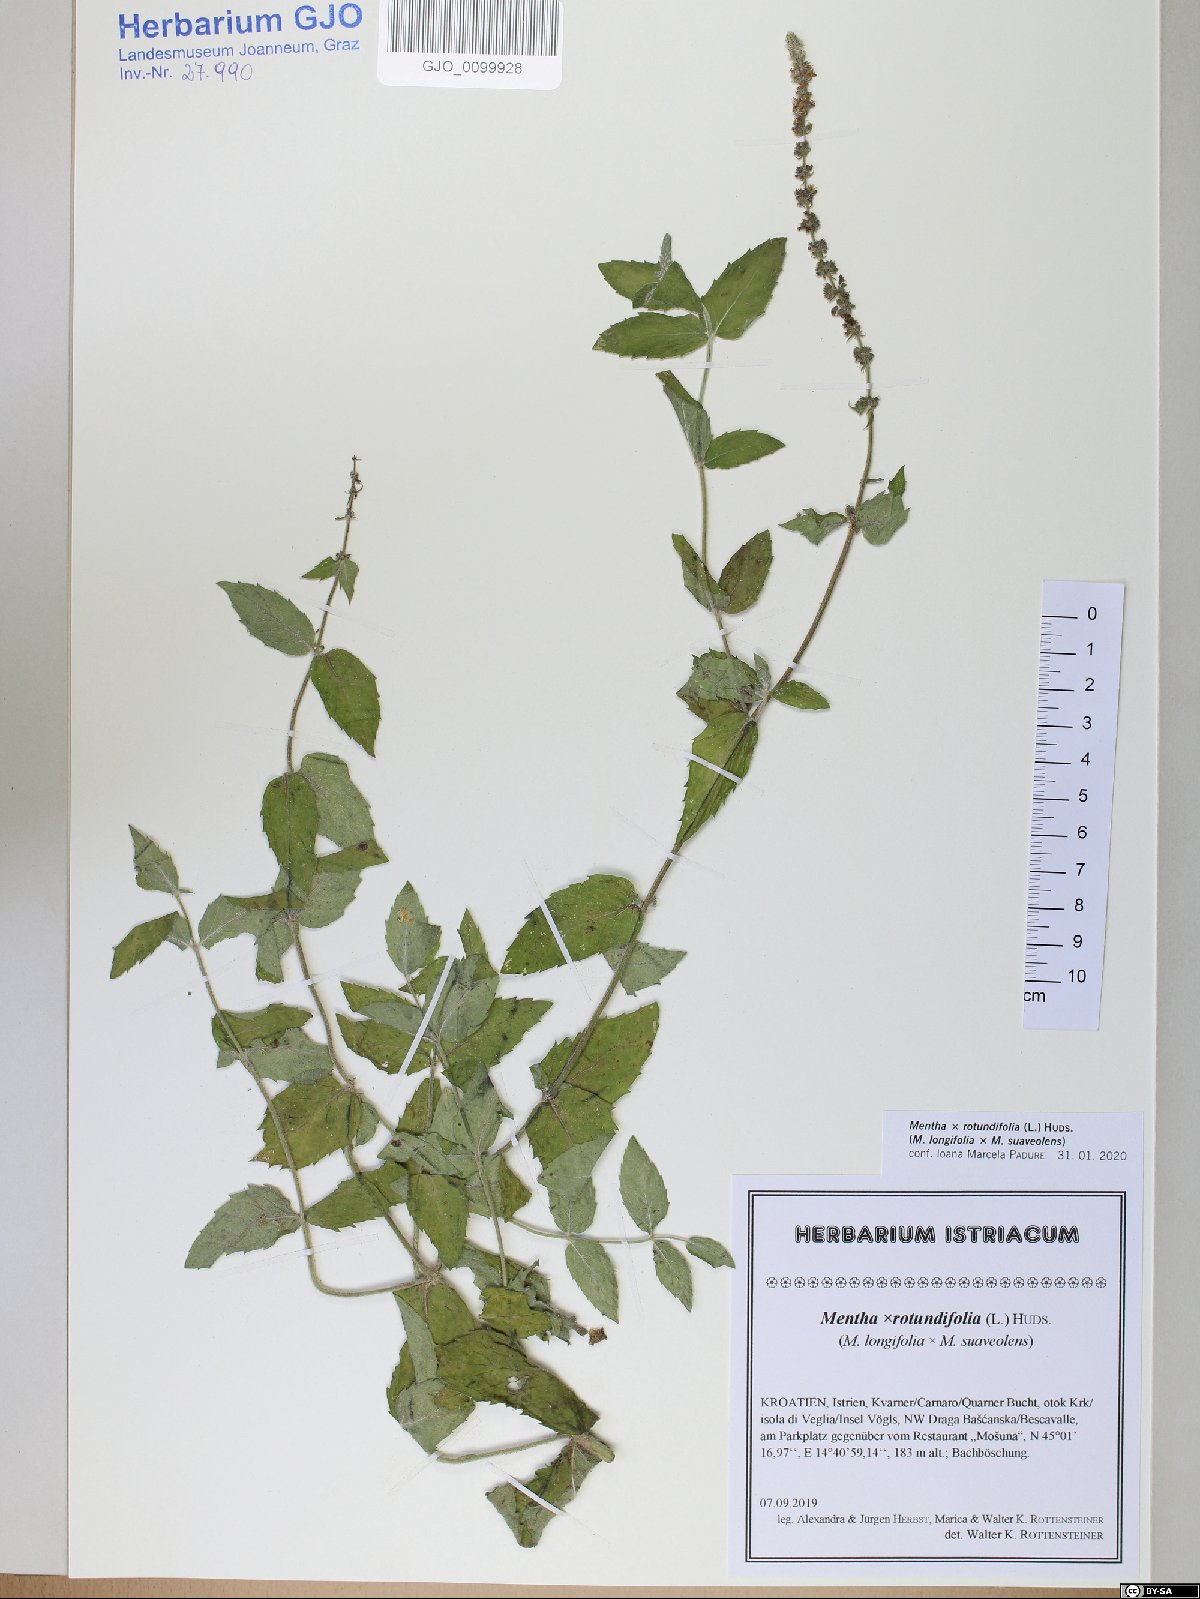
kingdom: Plantae
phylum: Tracheophyta
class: Magnoliopsida
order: Lamiales
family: Lamiaceae
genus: Mentha
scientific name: Mentha rotundifolia
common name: Bigleaf mint
